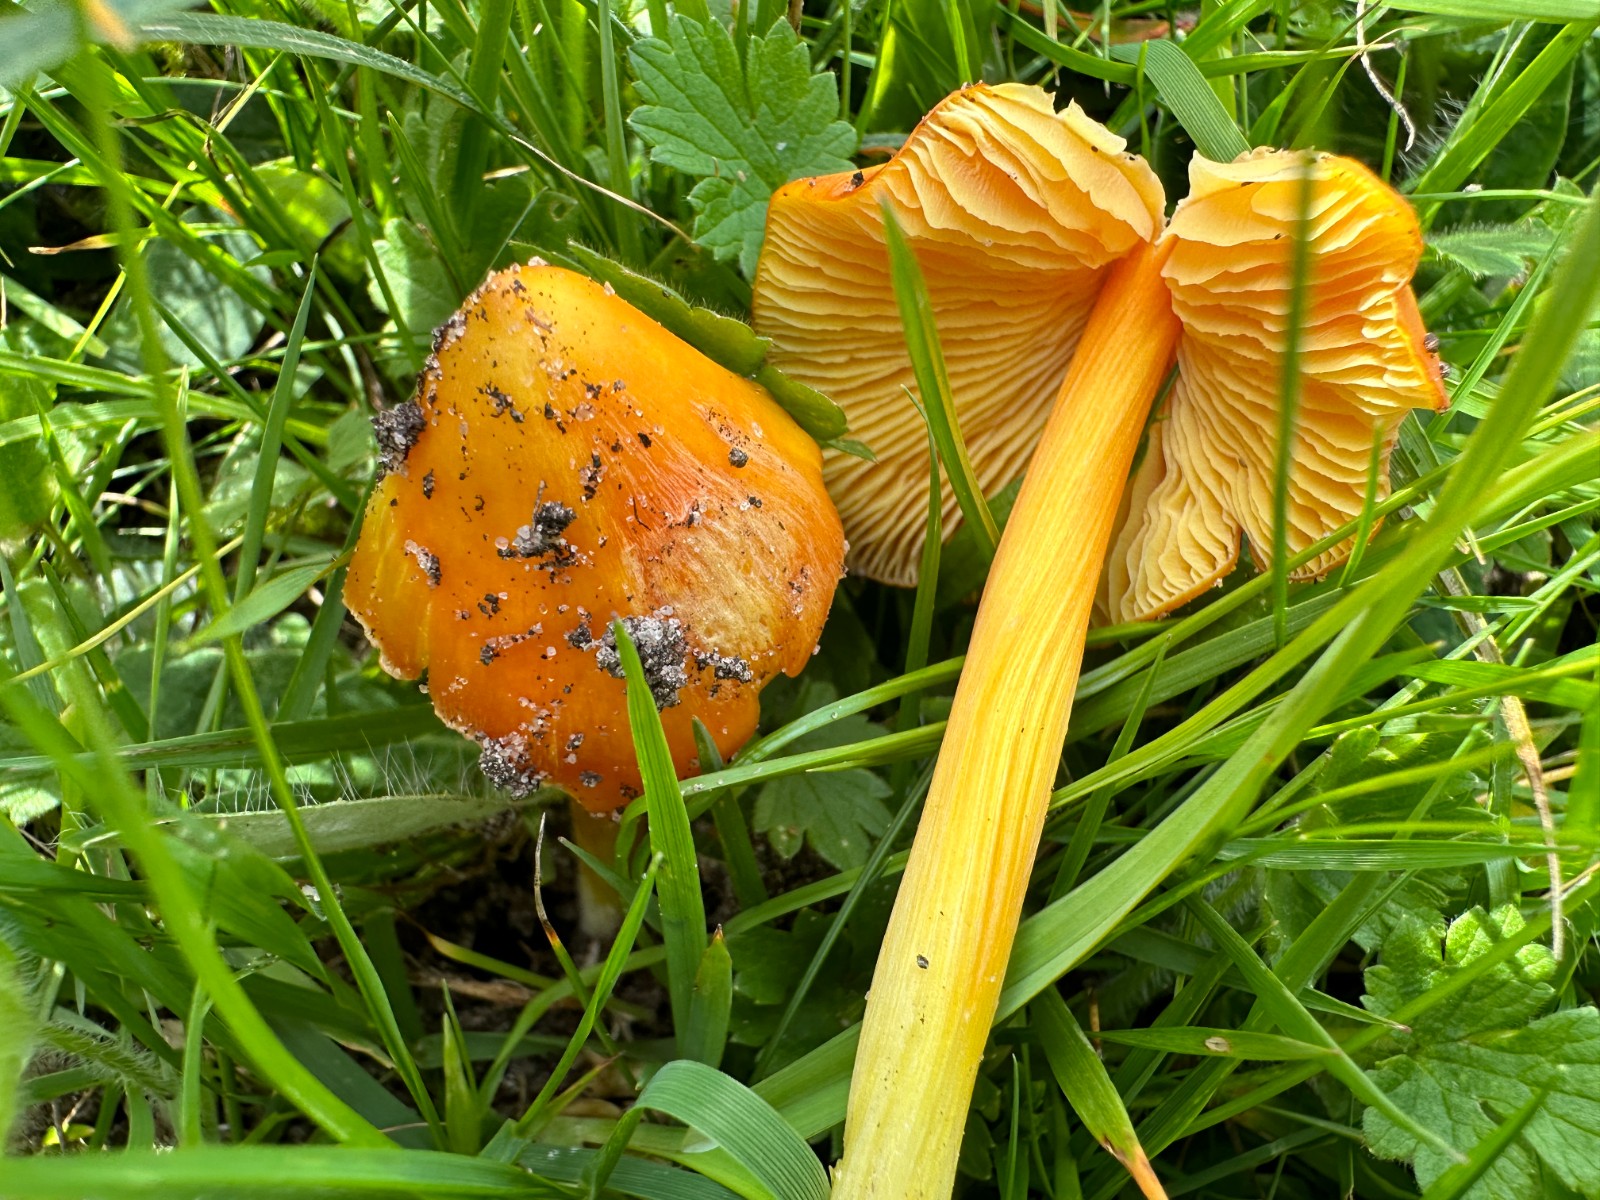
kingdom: Fungi
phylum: Basidiomycota
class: Agaricomycetes
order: Agaricales
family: Hygrophoraceae
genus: Hygrocybe
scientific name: Hygrocybe
